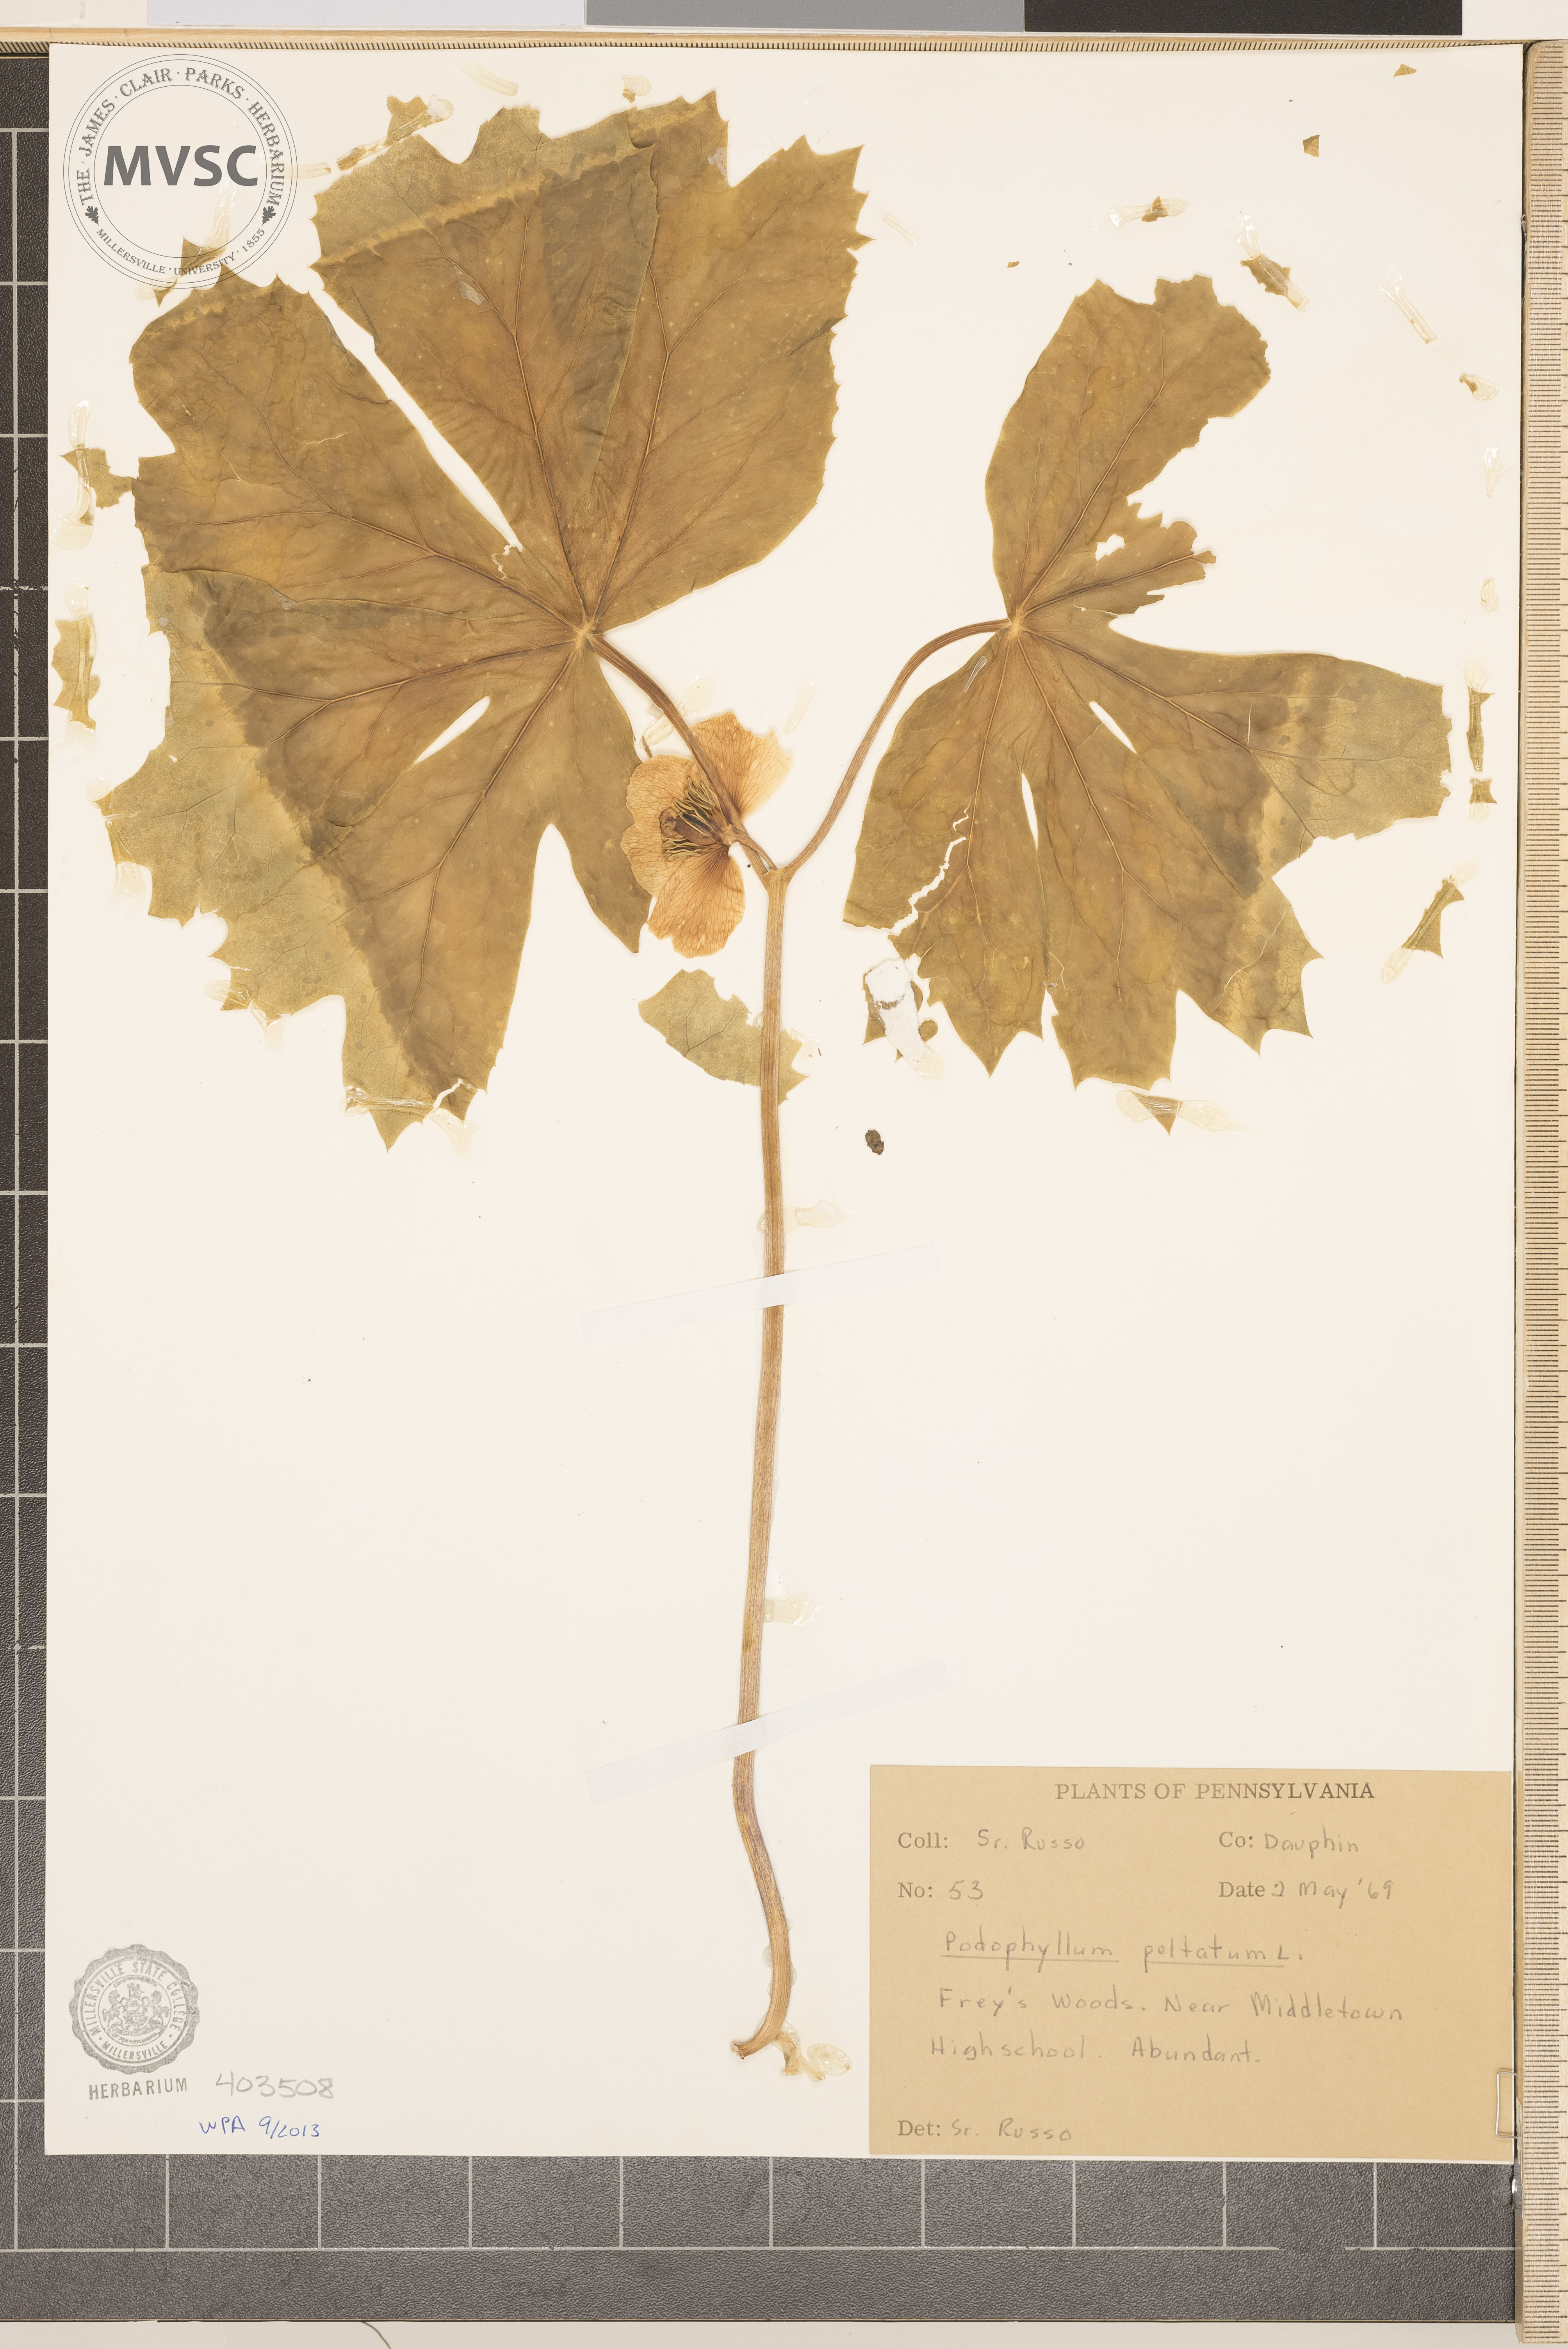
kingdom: Plantae
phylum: Tracheophyta
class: Magnoliopsida
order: Ranunculales
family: Berberidaceae
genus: Podophyllum
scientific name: Podophyllum peltatum
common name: May-Apple
